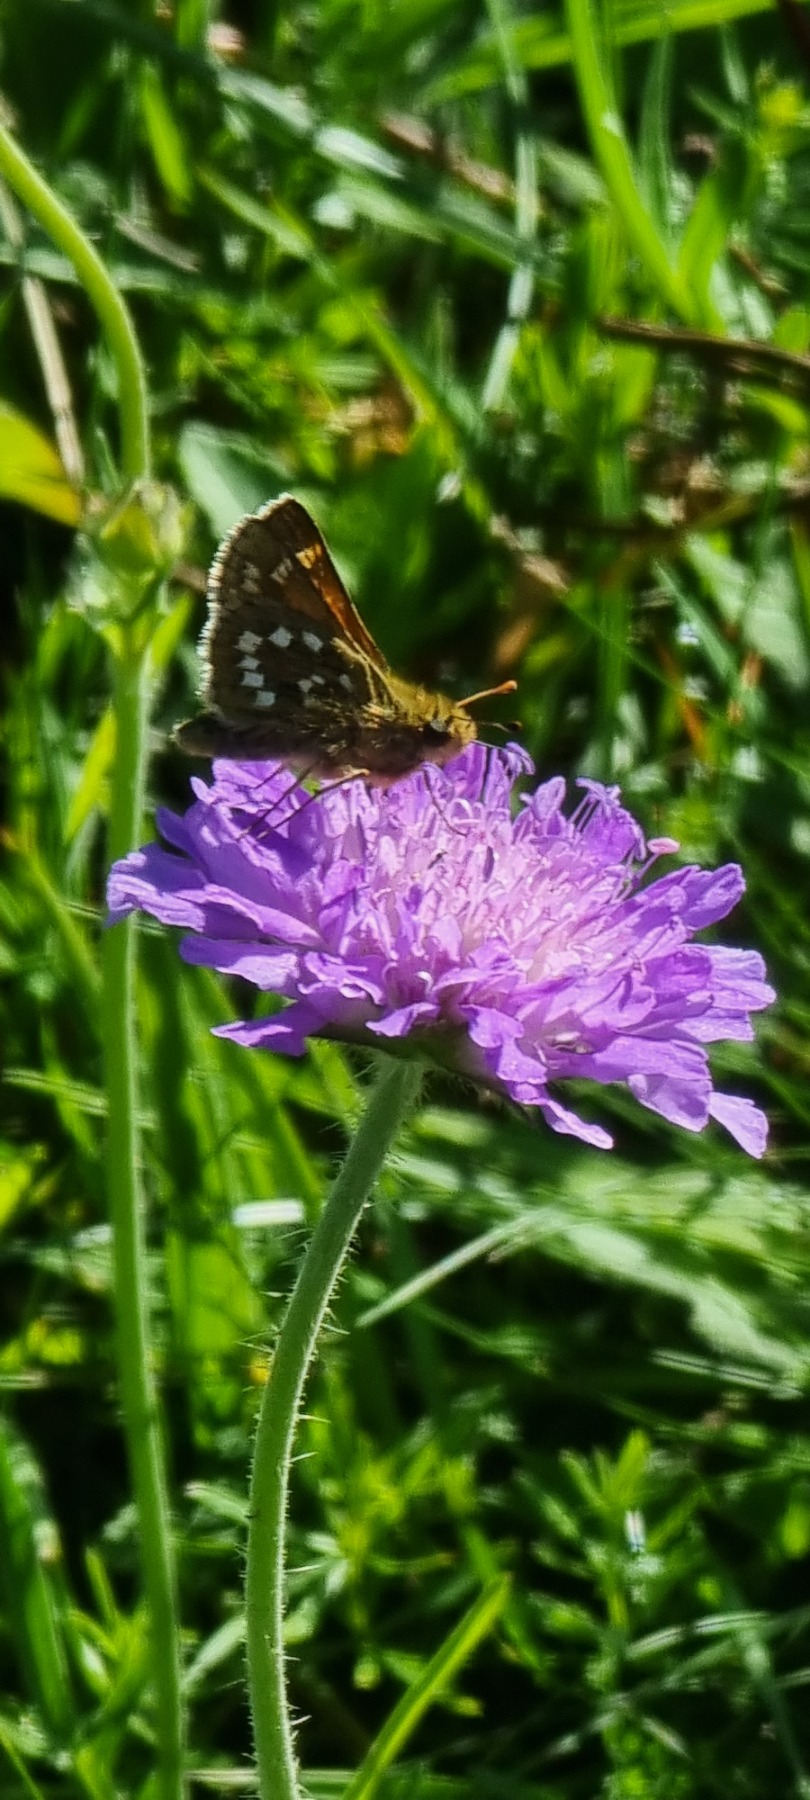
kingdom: Animalia
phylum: Arthropoda
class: Insecta
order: Lepidoptera
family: Hesperiidae
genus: Hesperia
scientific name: Hesperia comma
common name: Kommabredpande
